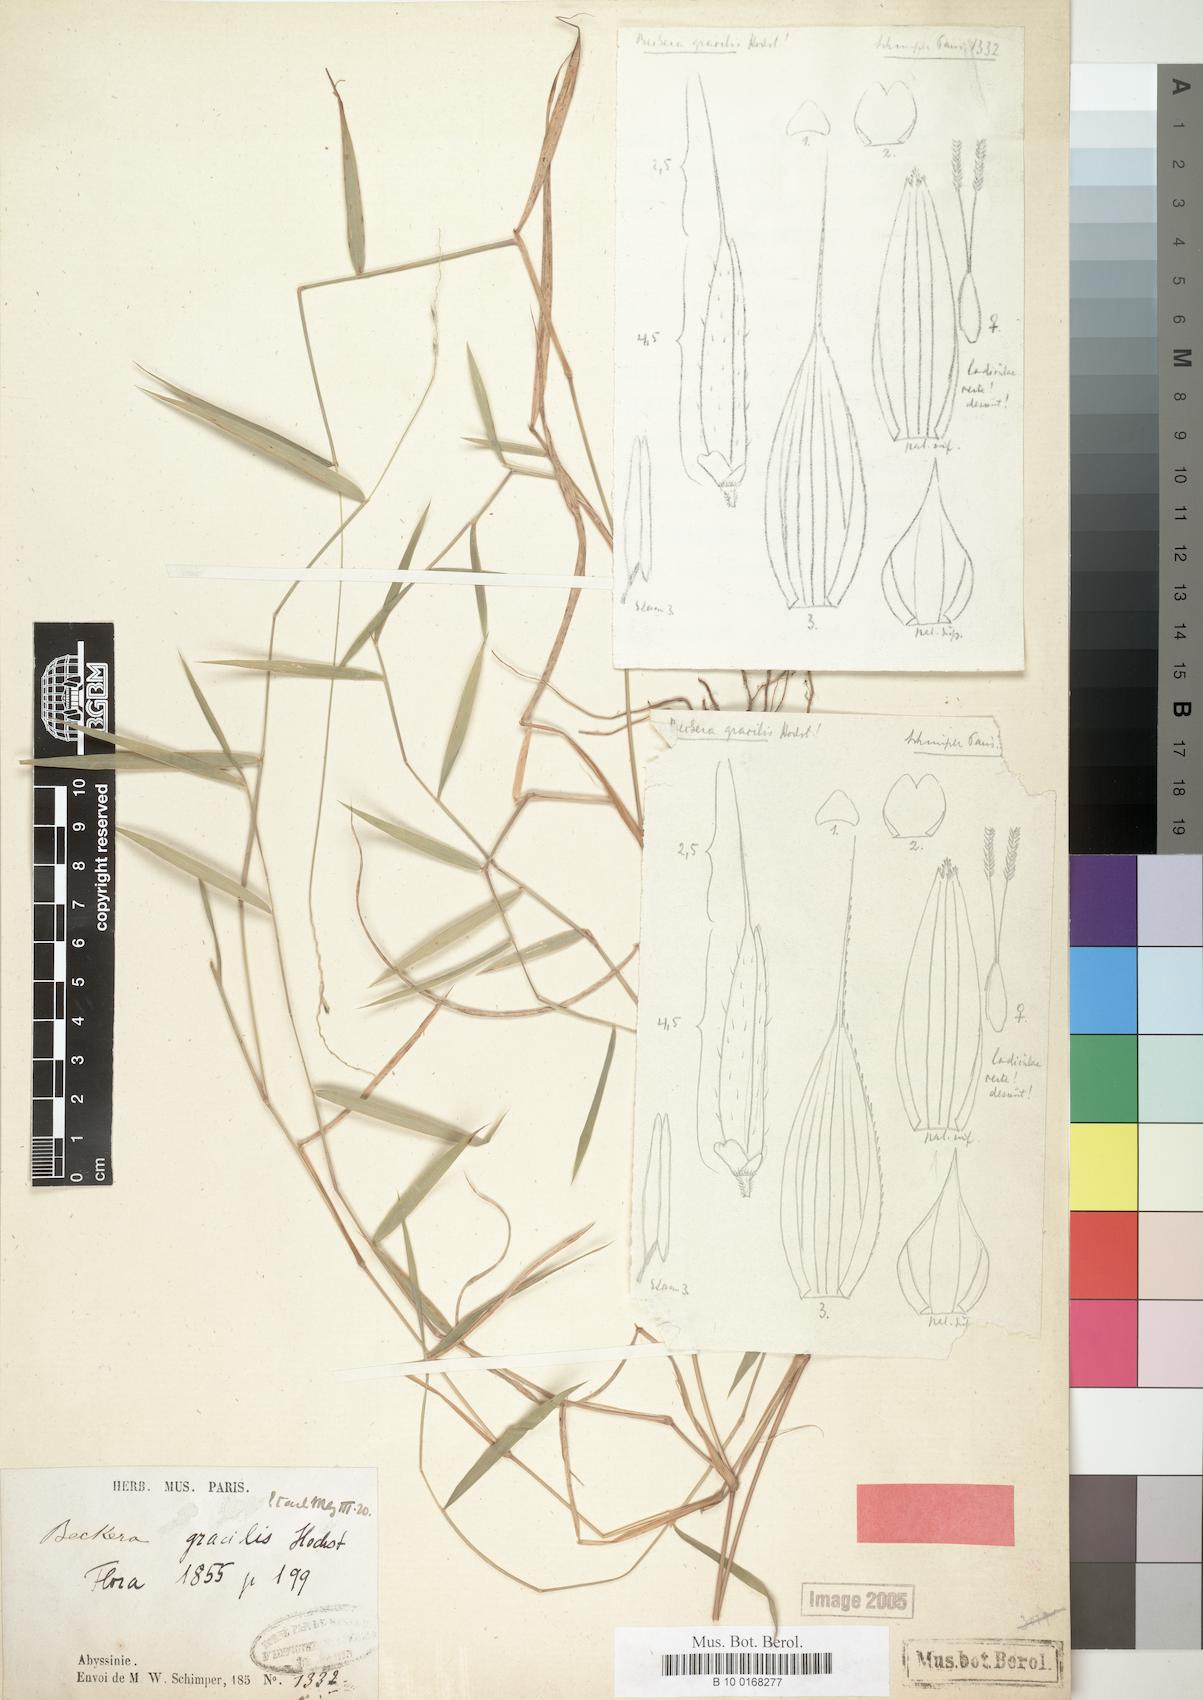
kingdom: Plantae
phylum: Tracheophyta
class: Liliopsida
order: Poales
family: Poaceae
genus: Snowdenia
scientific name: Snowdenia mutica
